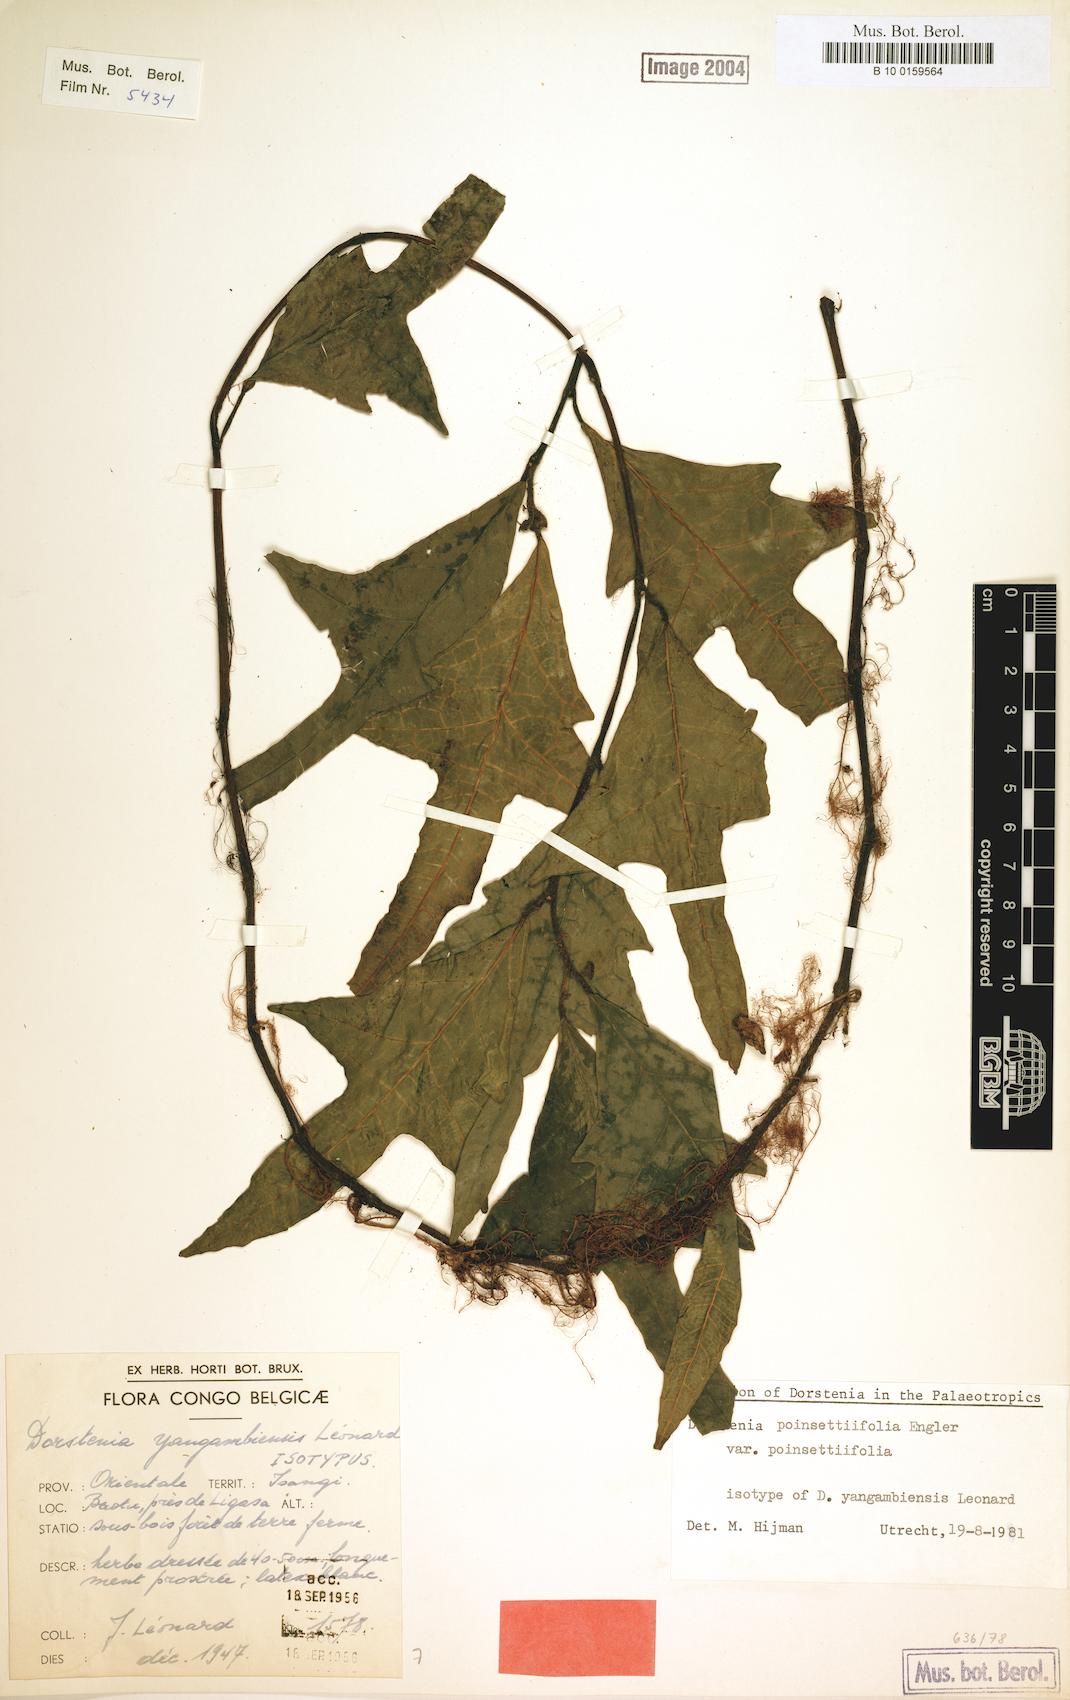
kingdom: Plantae
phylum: Tracheophyta
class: Magnoliopsida
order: Rosales
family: Moraceae
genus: Dorstenia
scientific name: Dorstenia poinsettifolia
